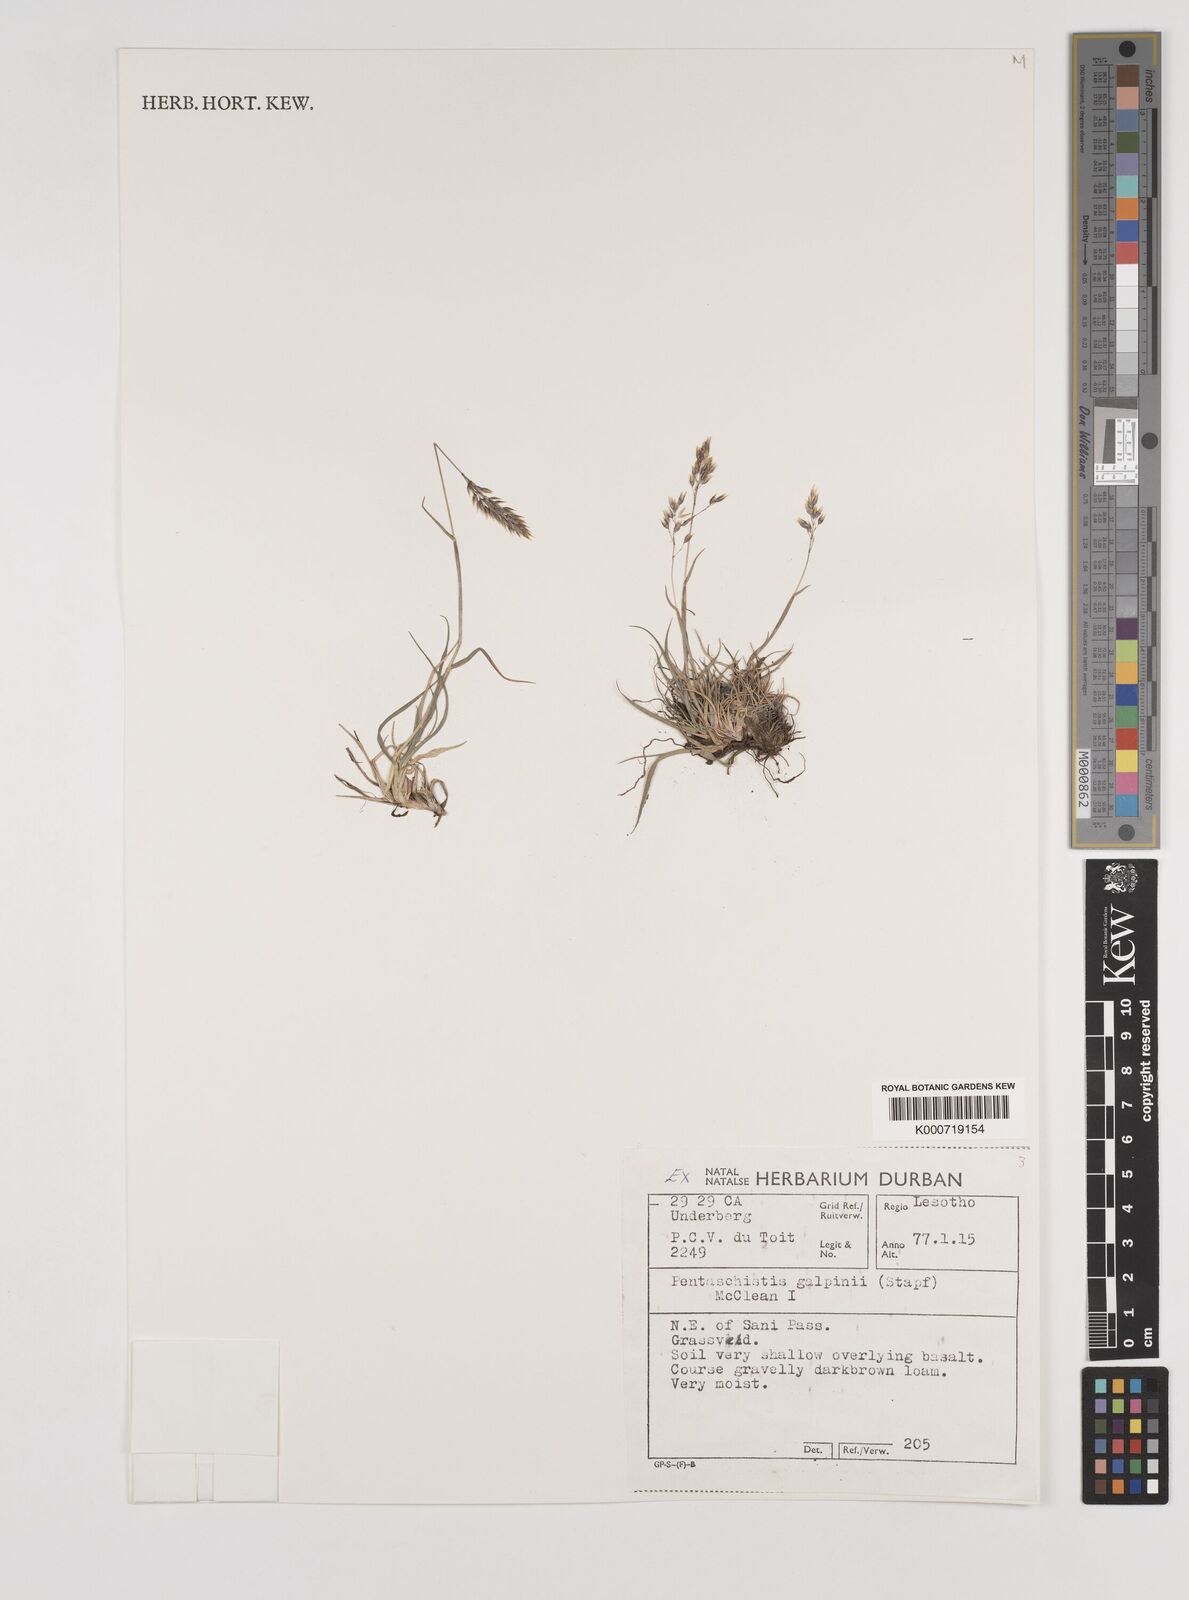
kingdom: Plantae
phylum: Tracheophyta
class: Liliopsida
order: Poales
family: Poaceae
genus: Pentameris
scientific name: Pentameris galpinii
